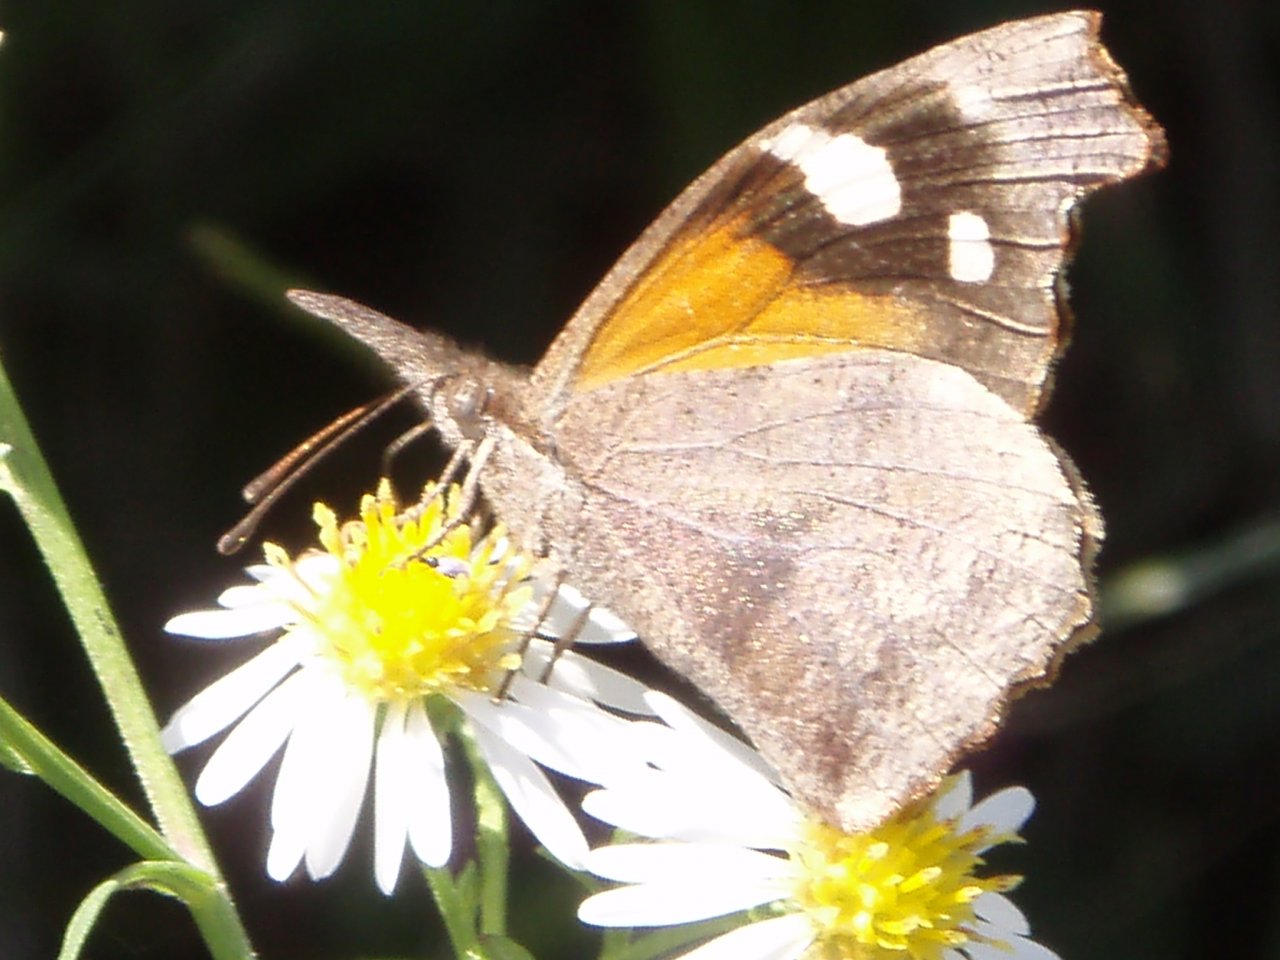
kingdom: Animalia
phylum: Arthropoda
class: Insecta
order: Lepidoptera
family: Nymphalidae
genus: Libytheana
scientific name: Libytheana carinenta
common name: American Snout
